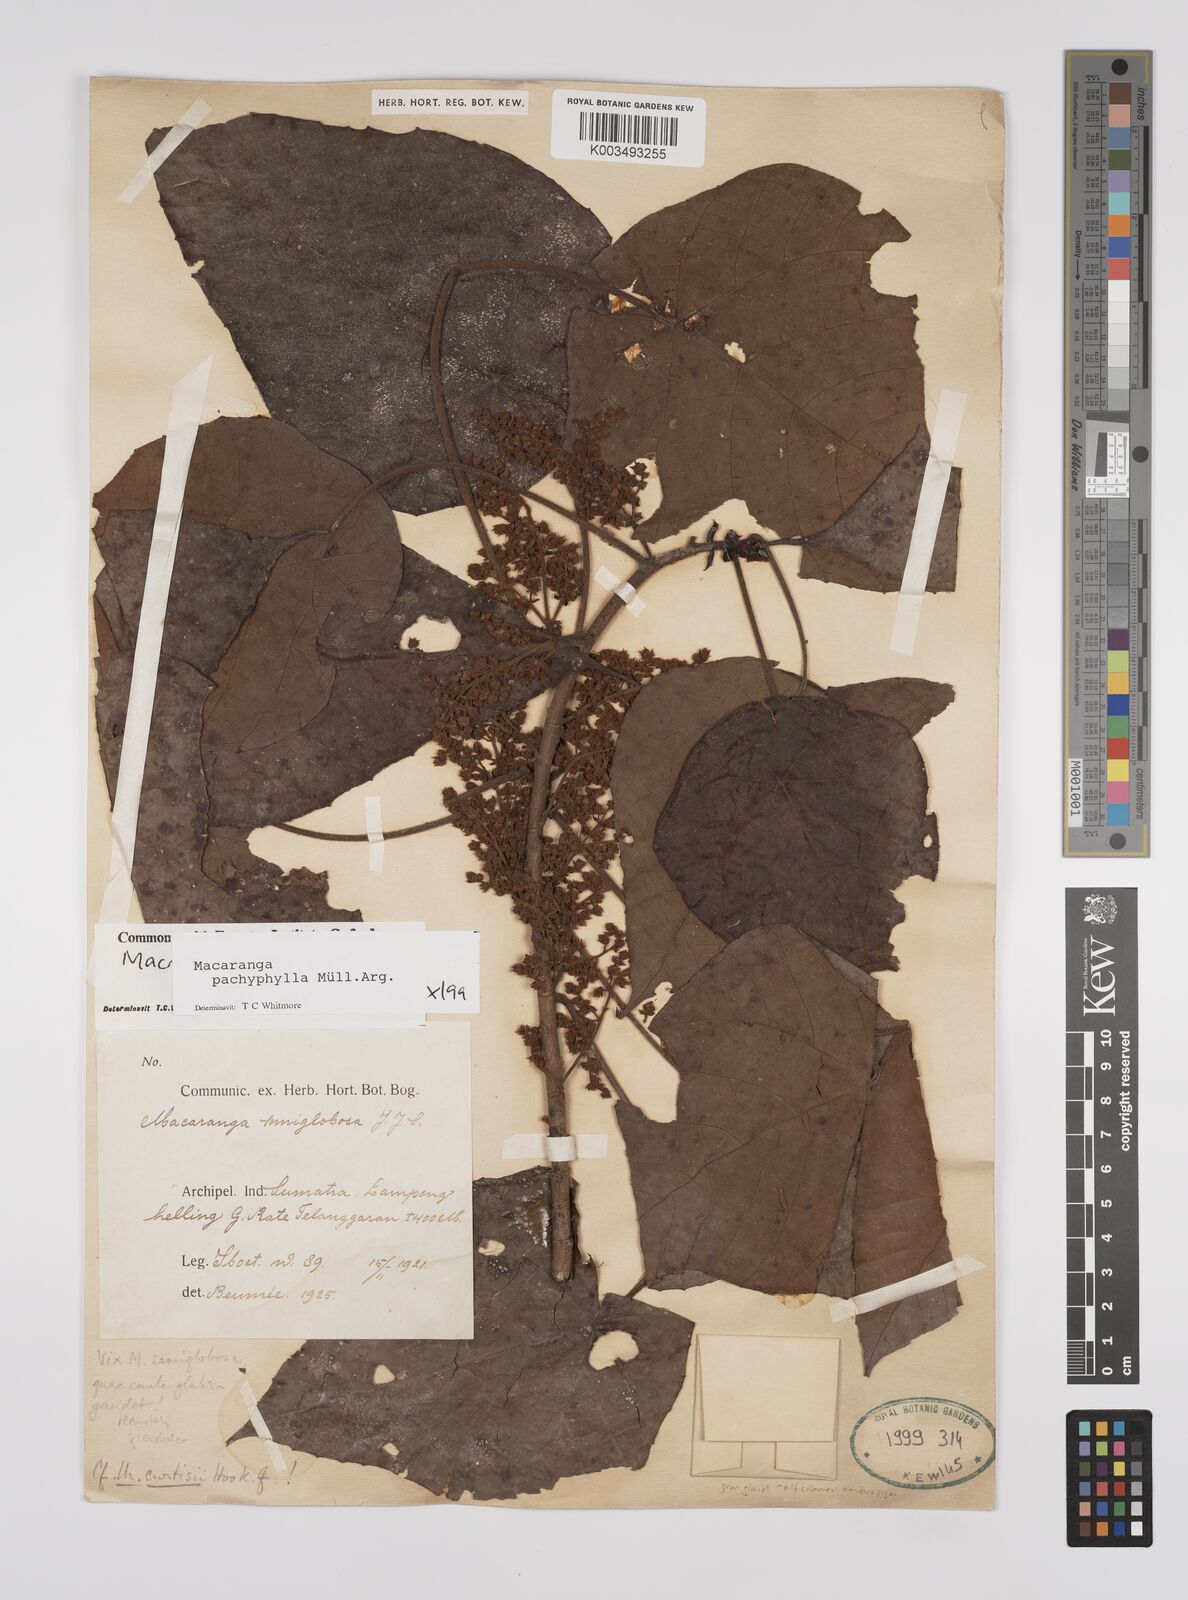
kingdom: Plantae
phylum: Tracheophyta
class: Magnoliopsida
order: Malpighiales
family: Euphorbiaceae
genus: Macaranga
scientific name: Macaranga pachyphylla
